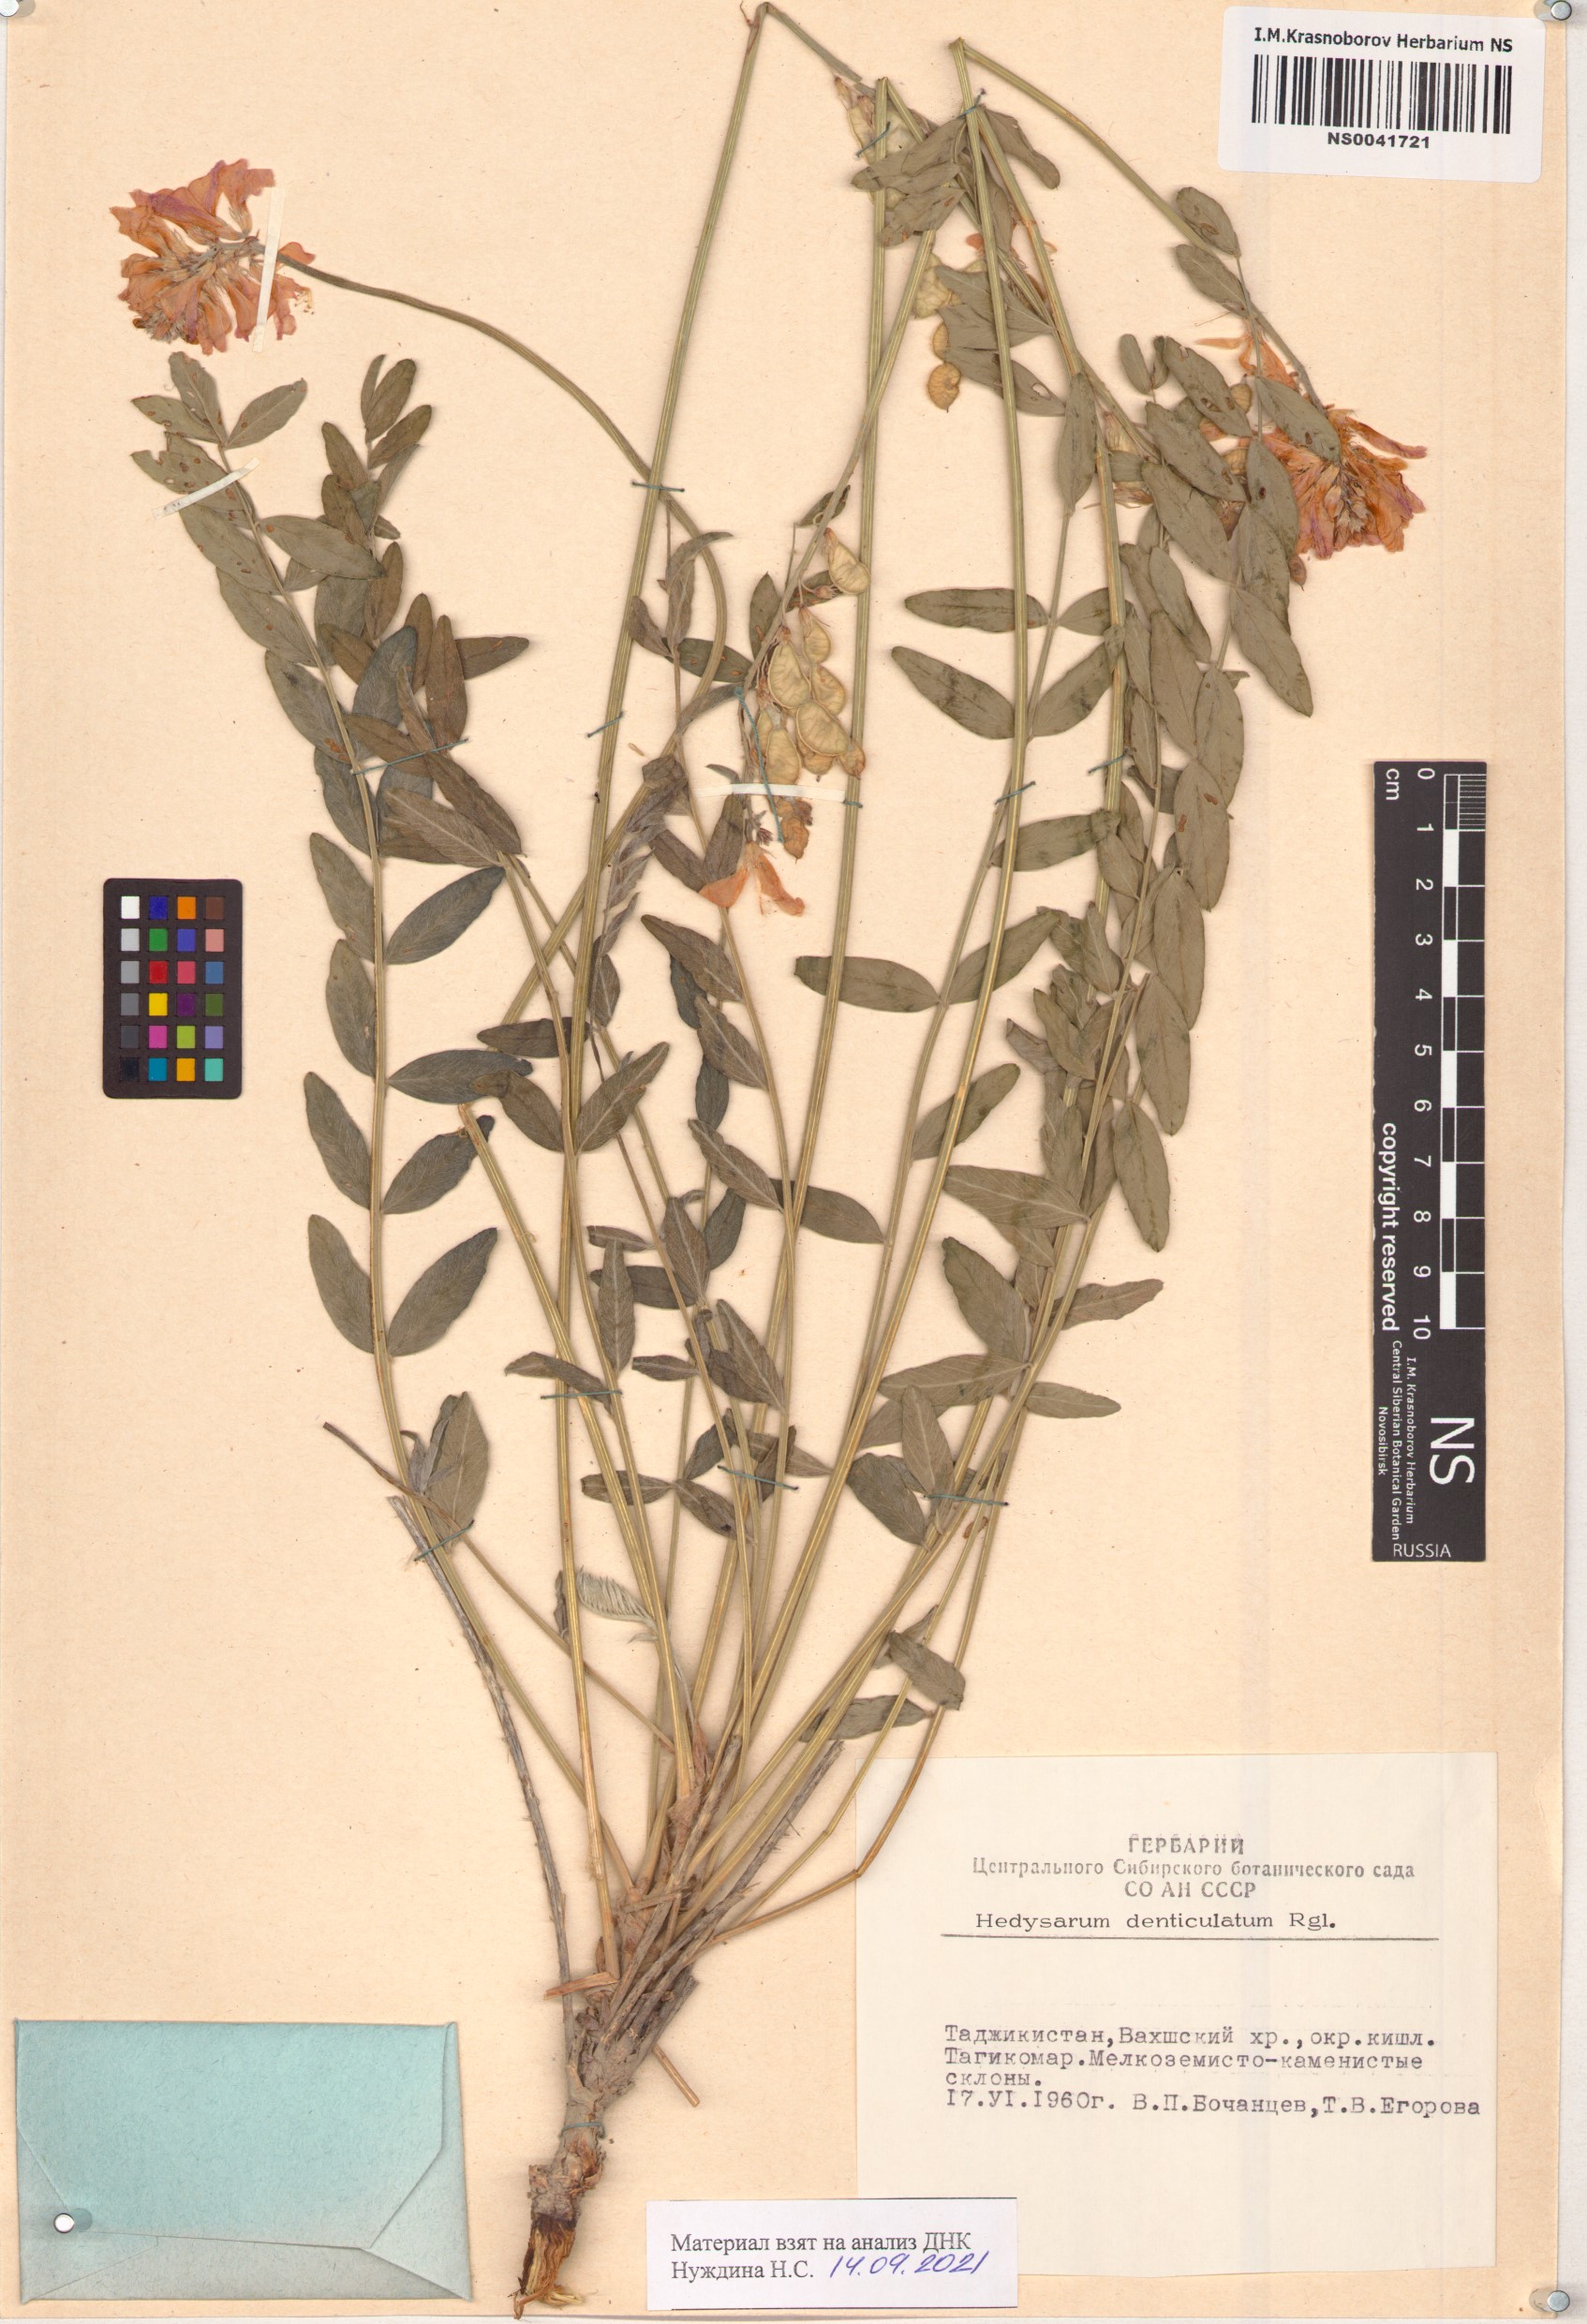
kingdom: Plantae
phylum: Tracheophyta
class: Magnoliopsida
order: Fabales
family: Fabaceae
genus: Hedysarum
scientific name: Hedysarum denticulatum
